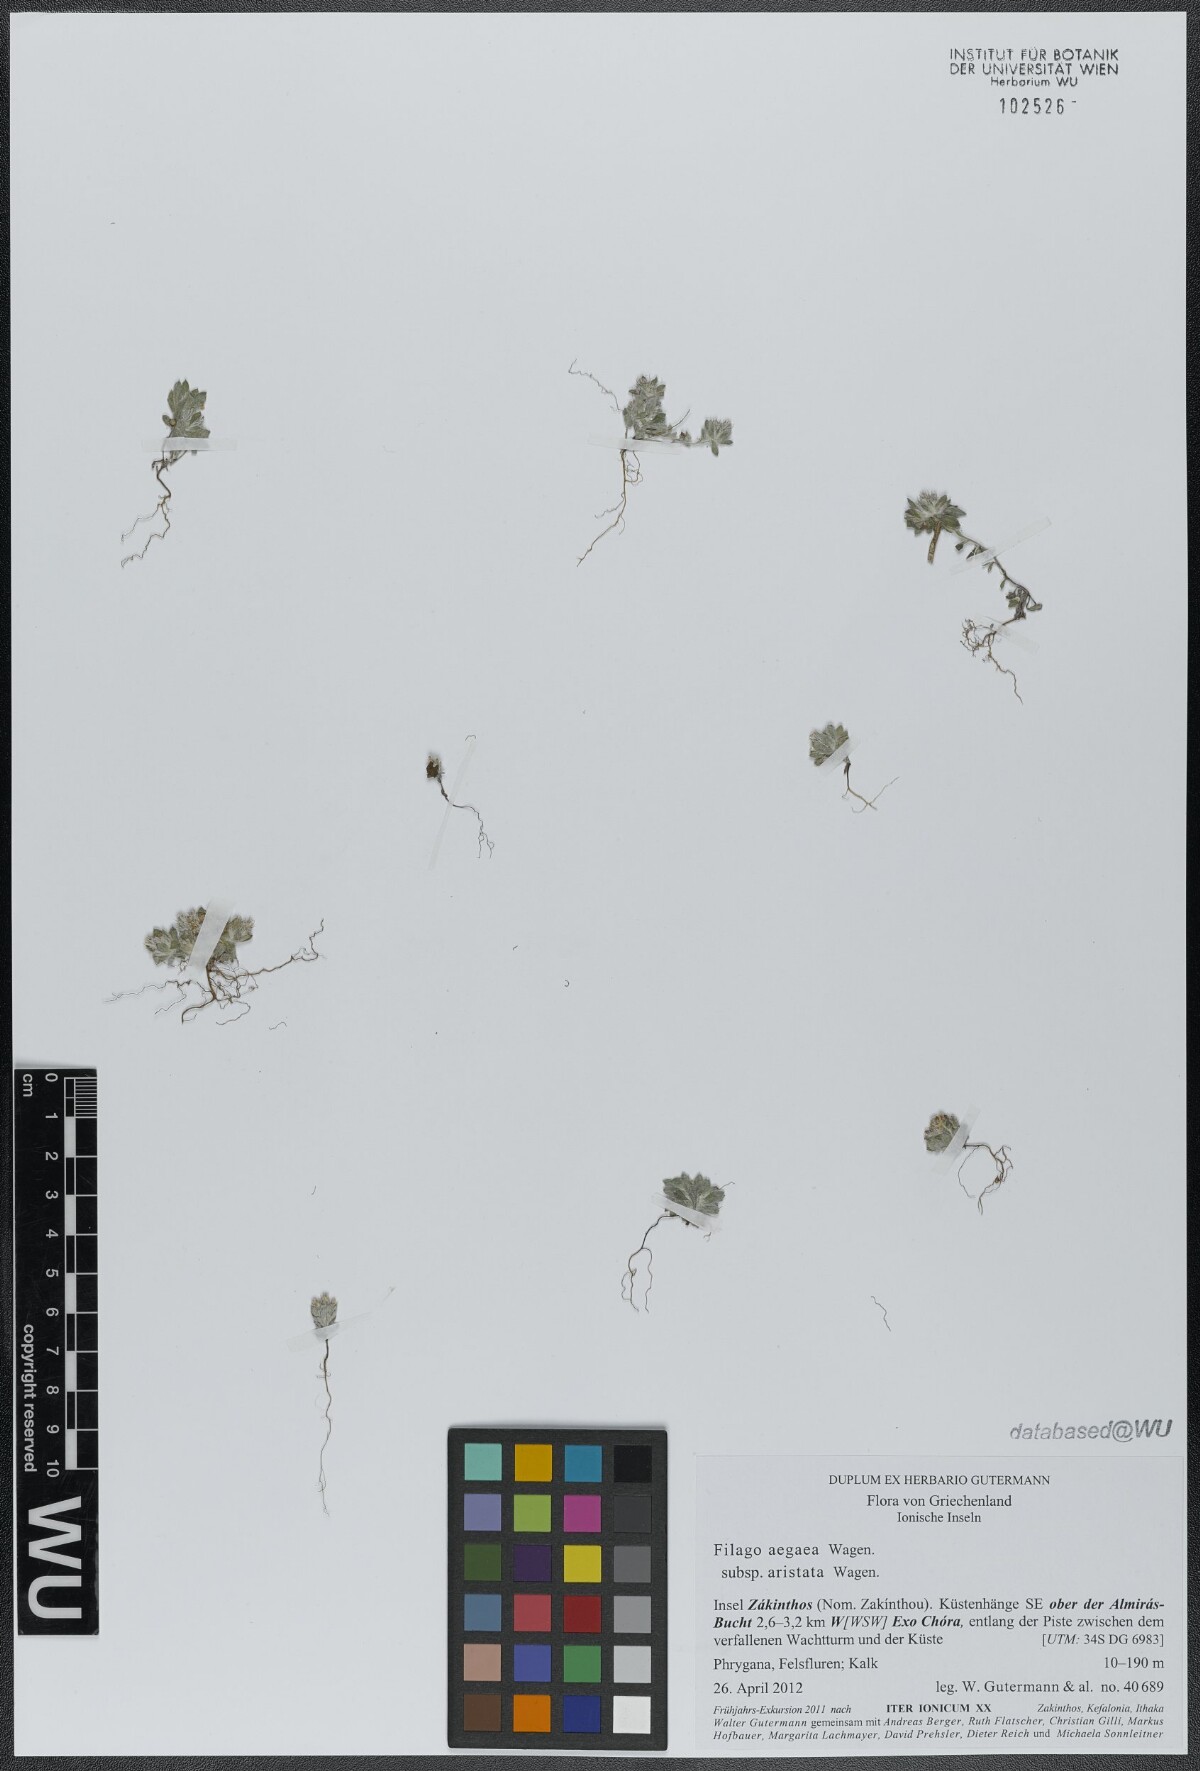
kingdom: Plantae
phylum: Tracheophyta
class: Magnoliopsida
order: Asterales
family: Asteraceae
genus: Filago
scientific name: Filago aegaea
